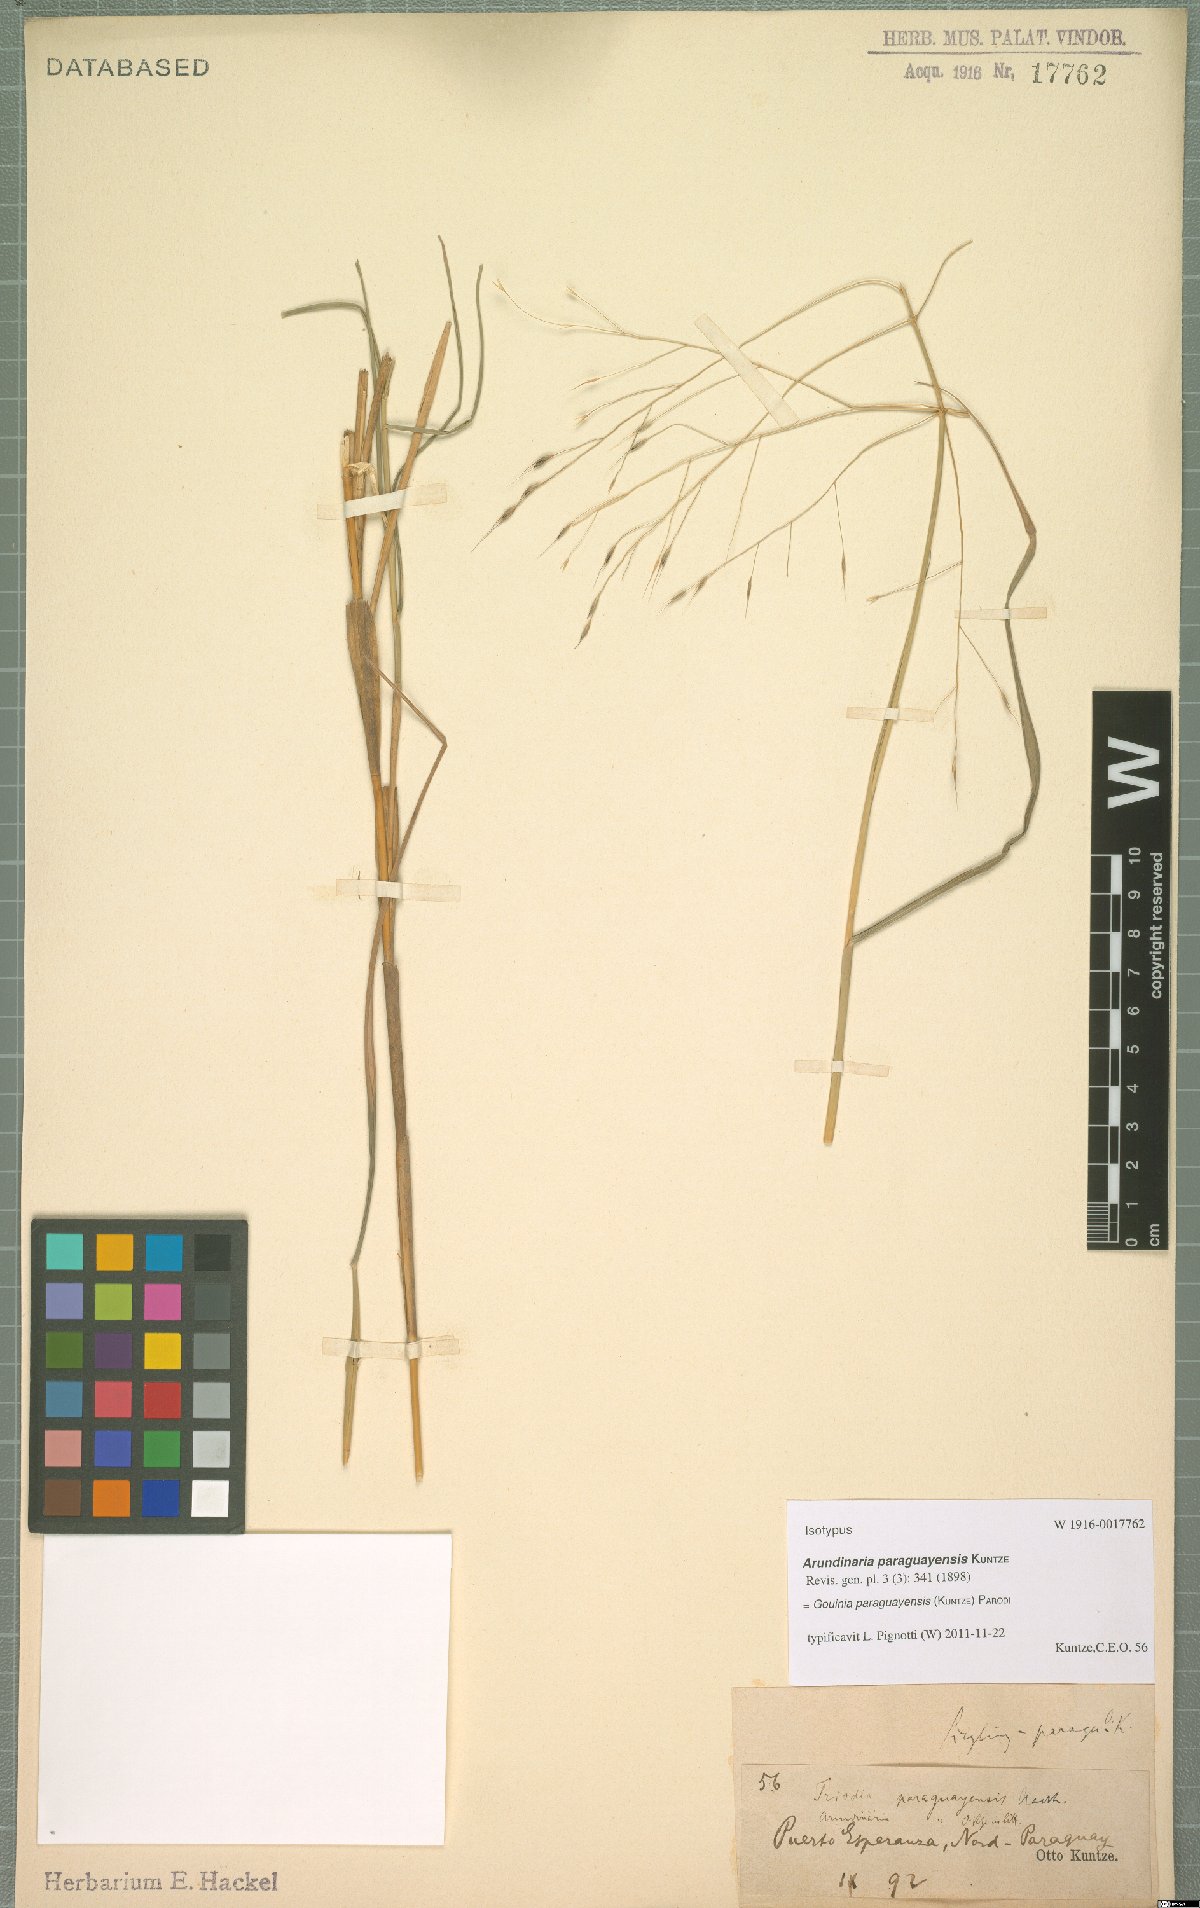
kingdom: Plantae
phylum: Tracheophyta
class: Liliopsida
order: Poales
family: Poaceae
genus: Gouinia
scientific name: Gouinia paraguayensis
